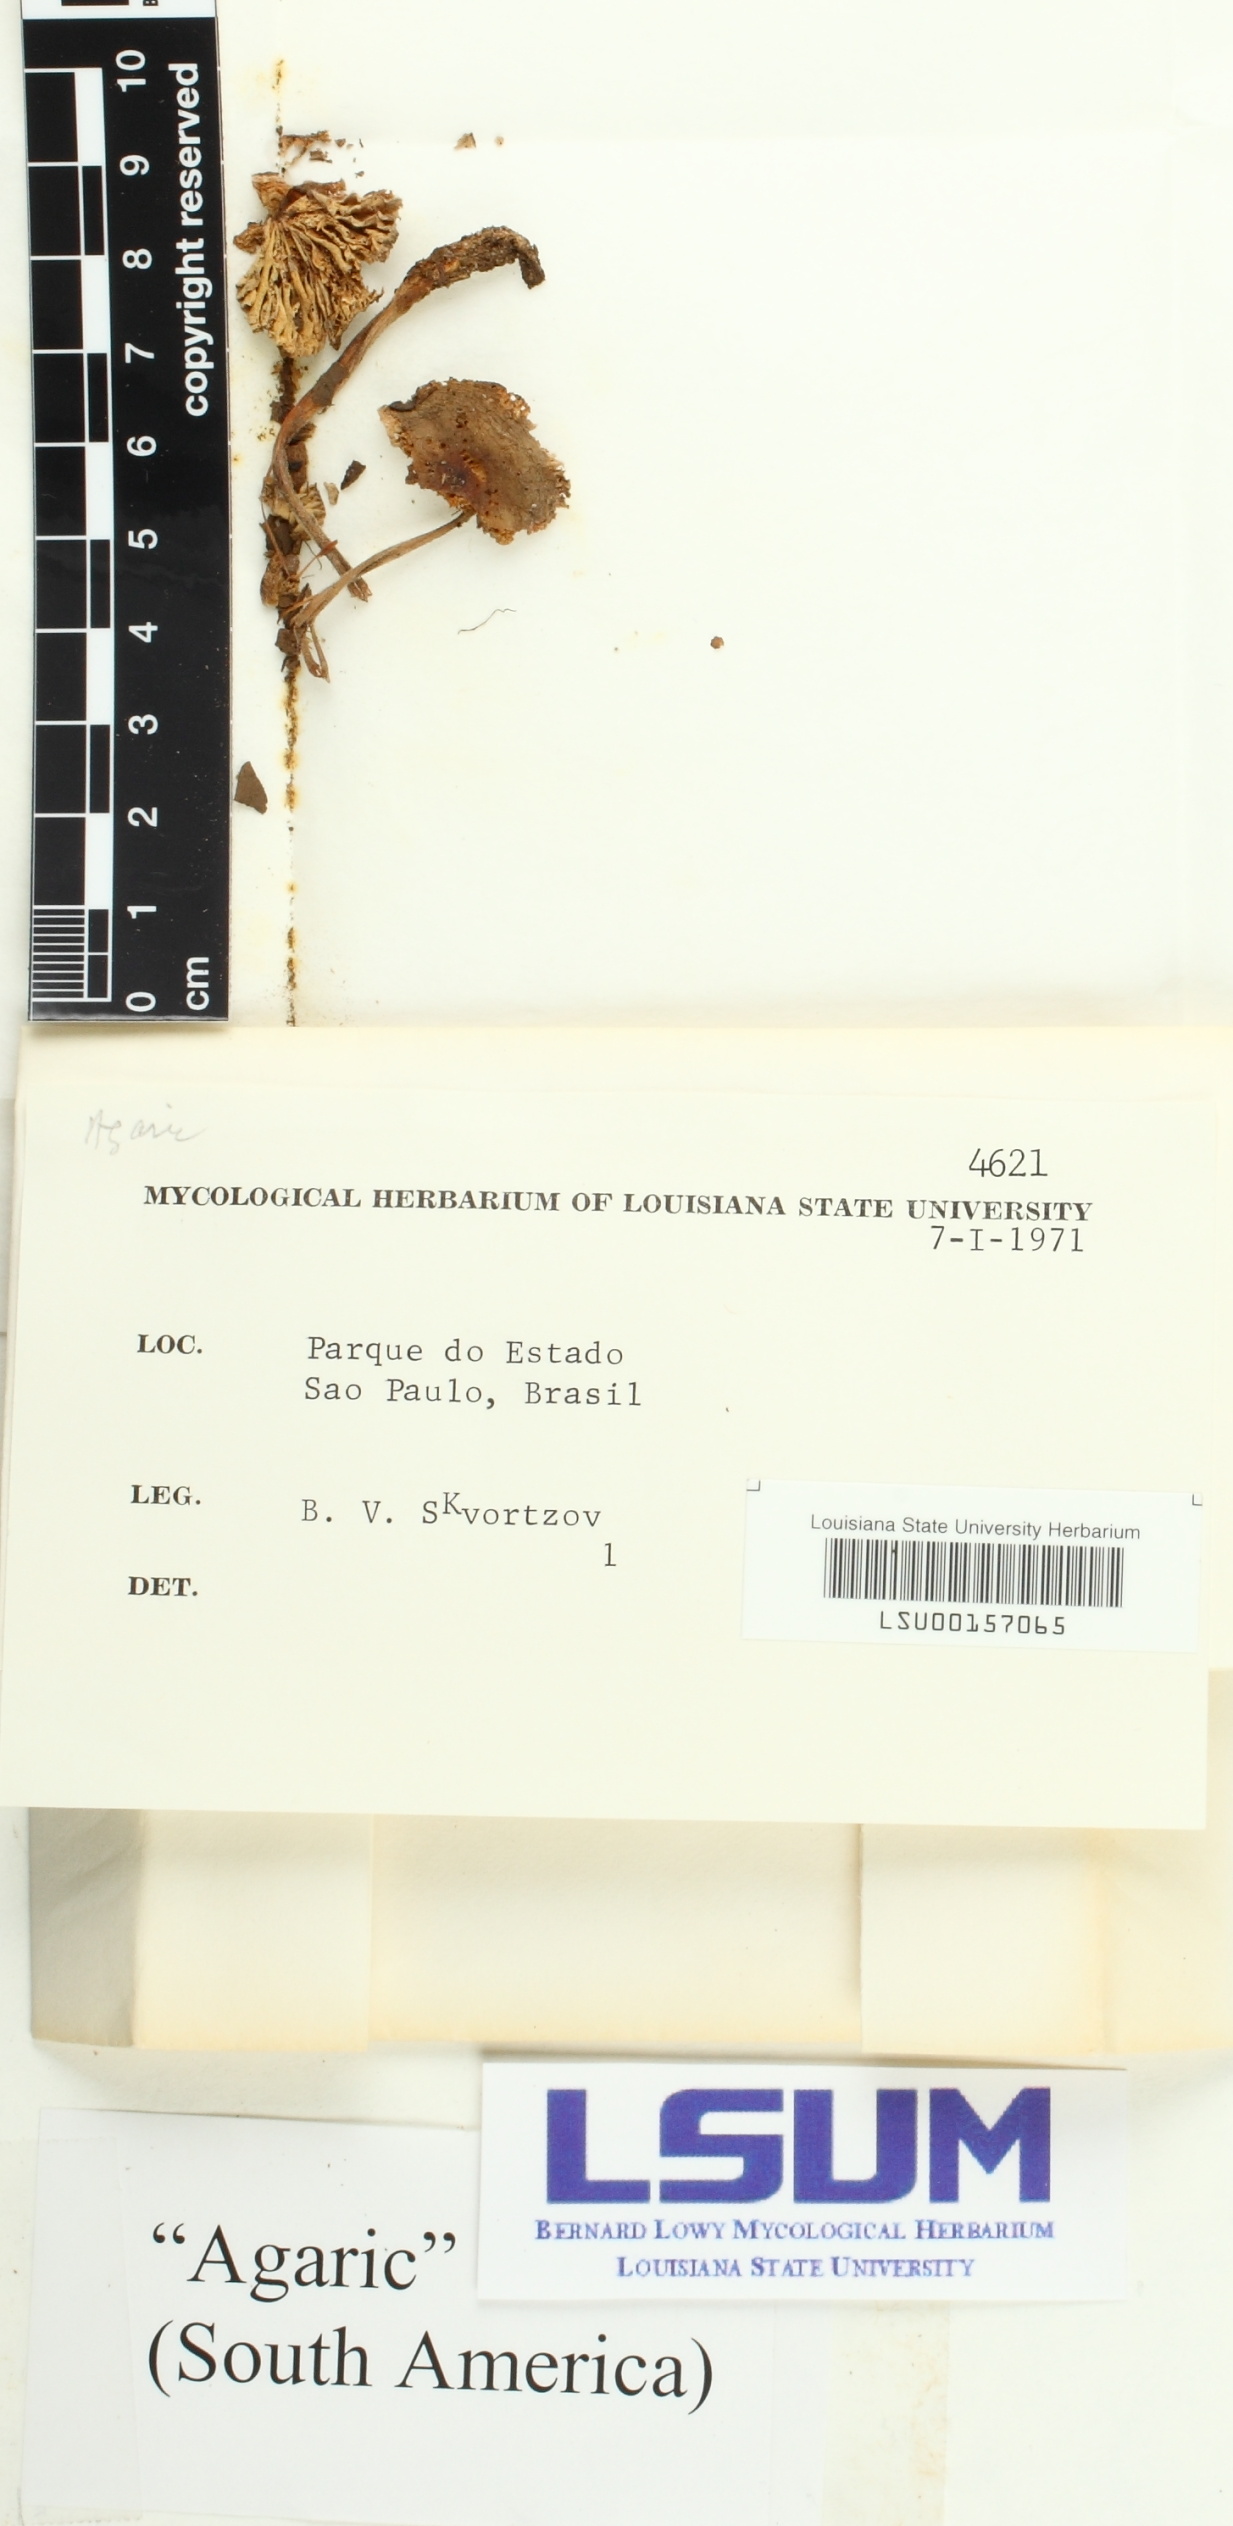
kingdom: Fungi
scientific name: Fungi
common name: Fungi
